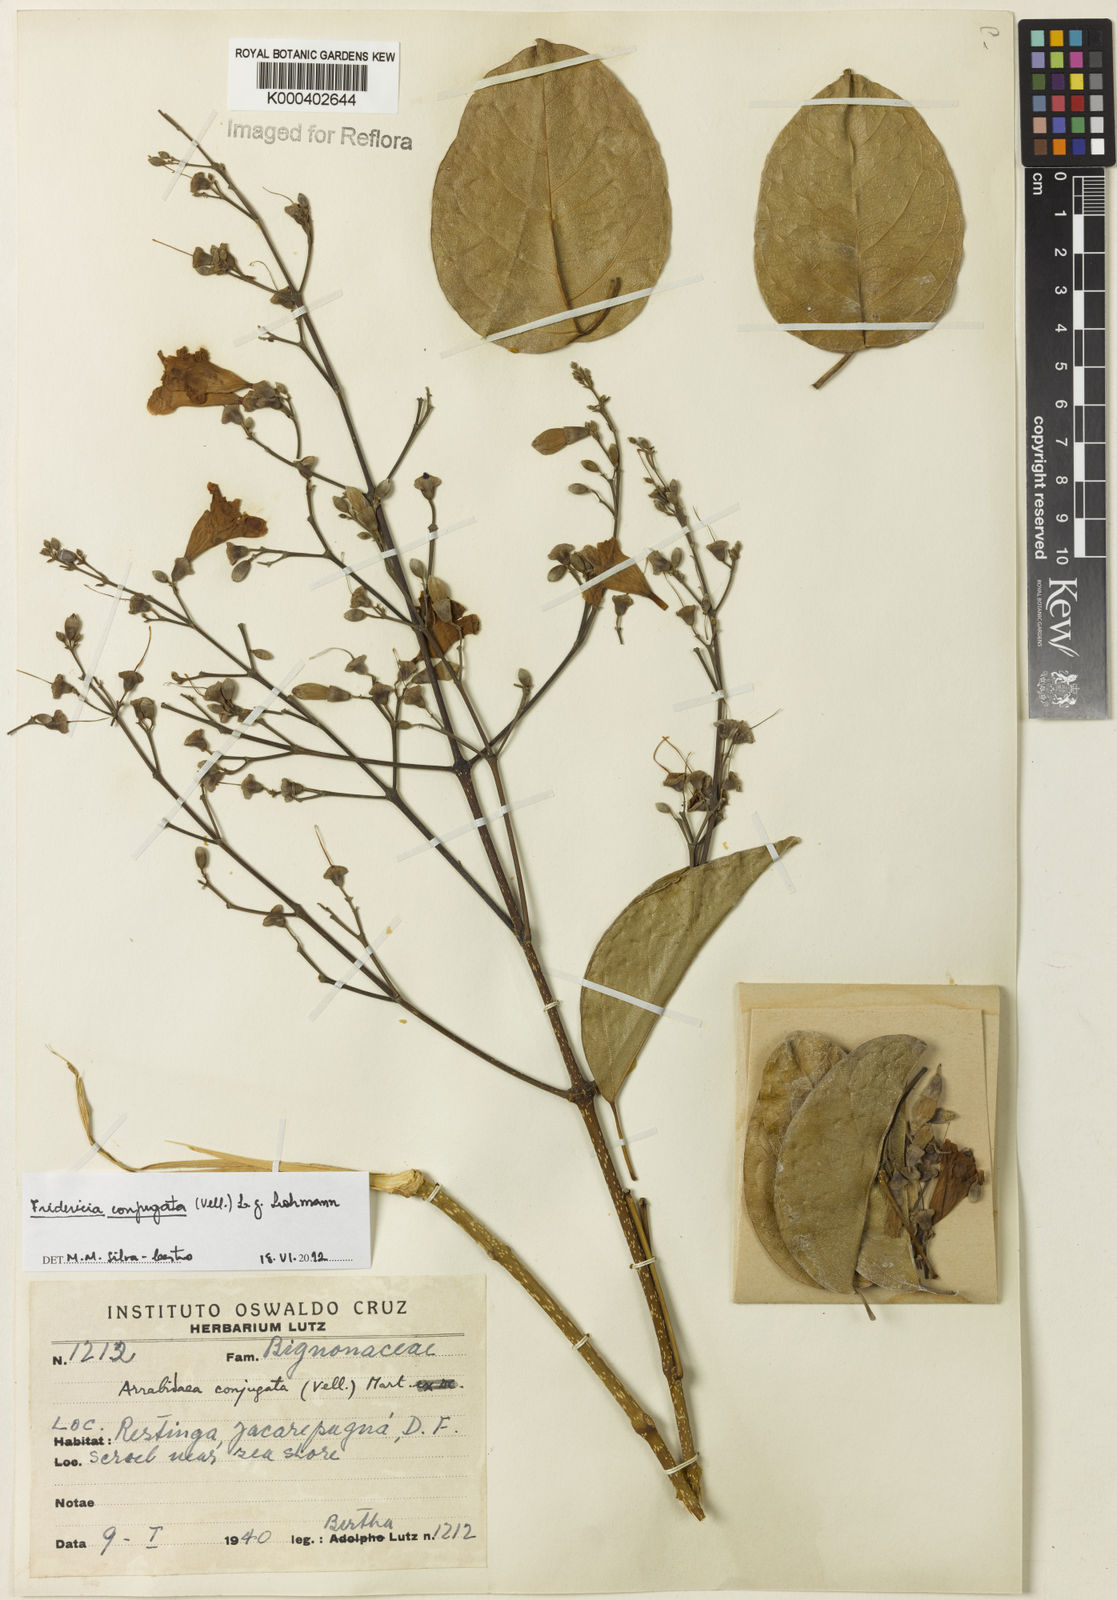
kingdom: Plantae
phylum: Tracheophyta
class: Magnoliopsida
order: Lamiales
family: Bignoniaceae
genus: Fridericia
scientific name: Fridericia conjugata
